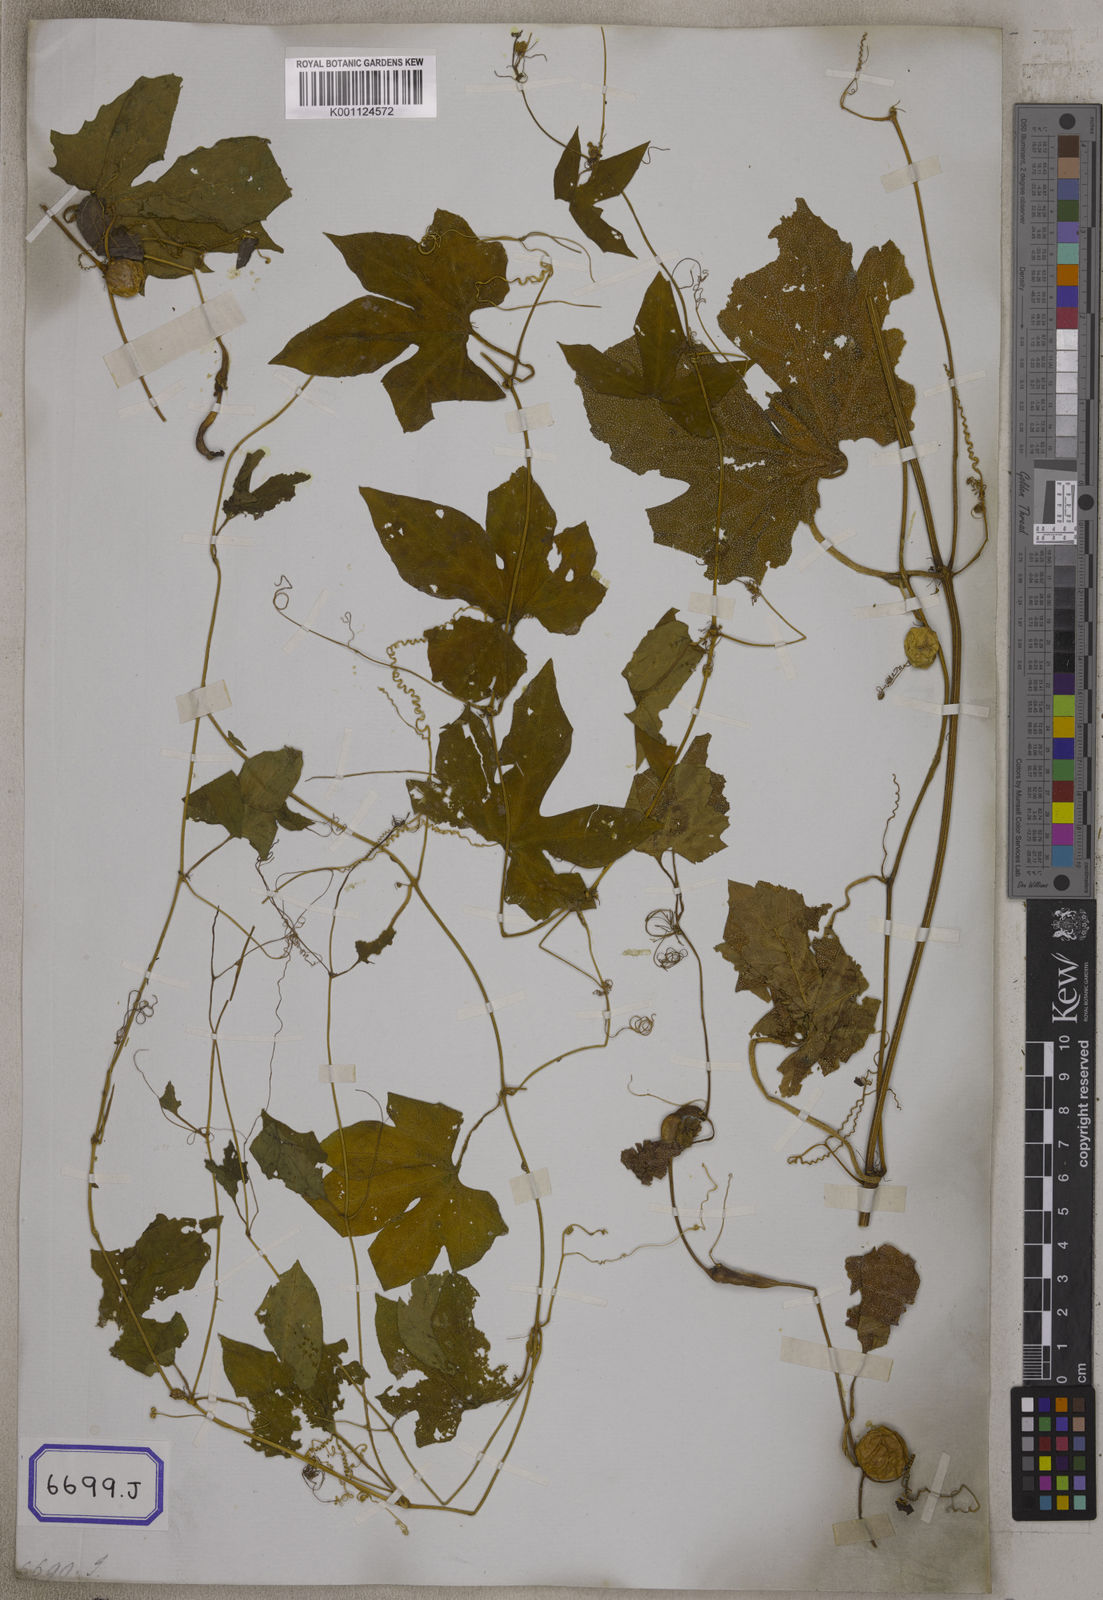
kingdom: Plantae
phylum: Tracheophyta
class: Magnoliopsida
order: Cucurbitales
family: Cucurbitaceae
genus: Diplocyclos
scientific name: Diplocyclos palmatus
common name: Striped-cucumber
